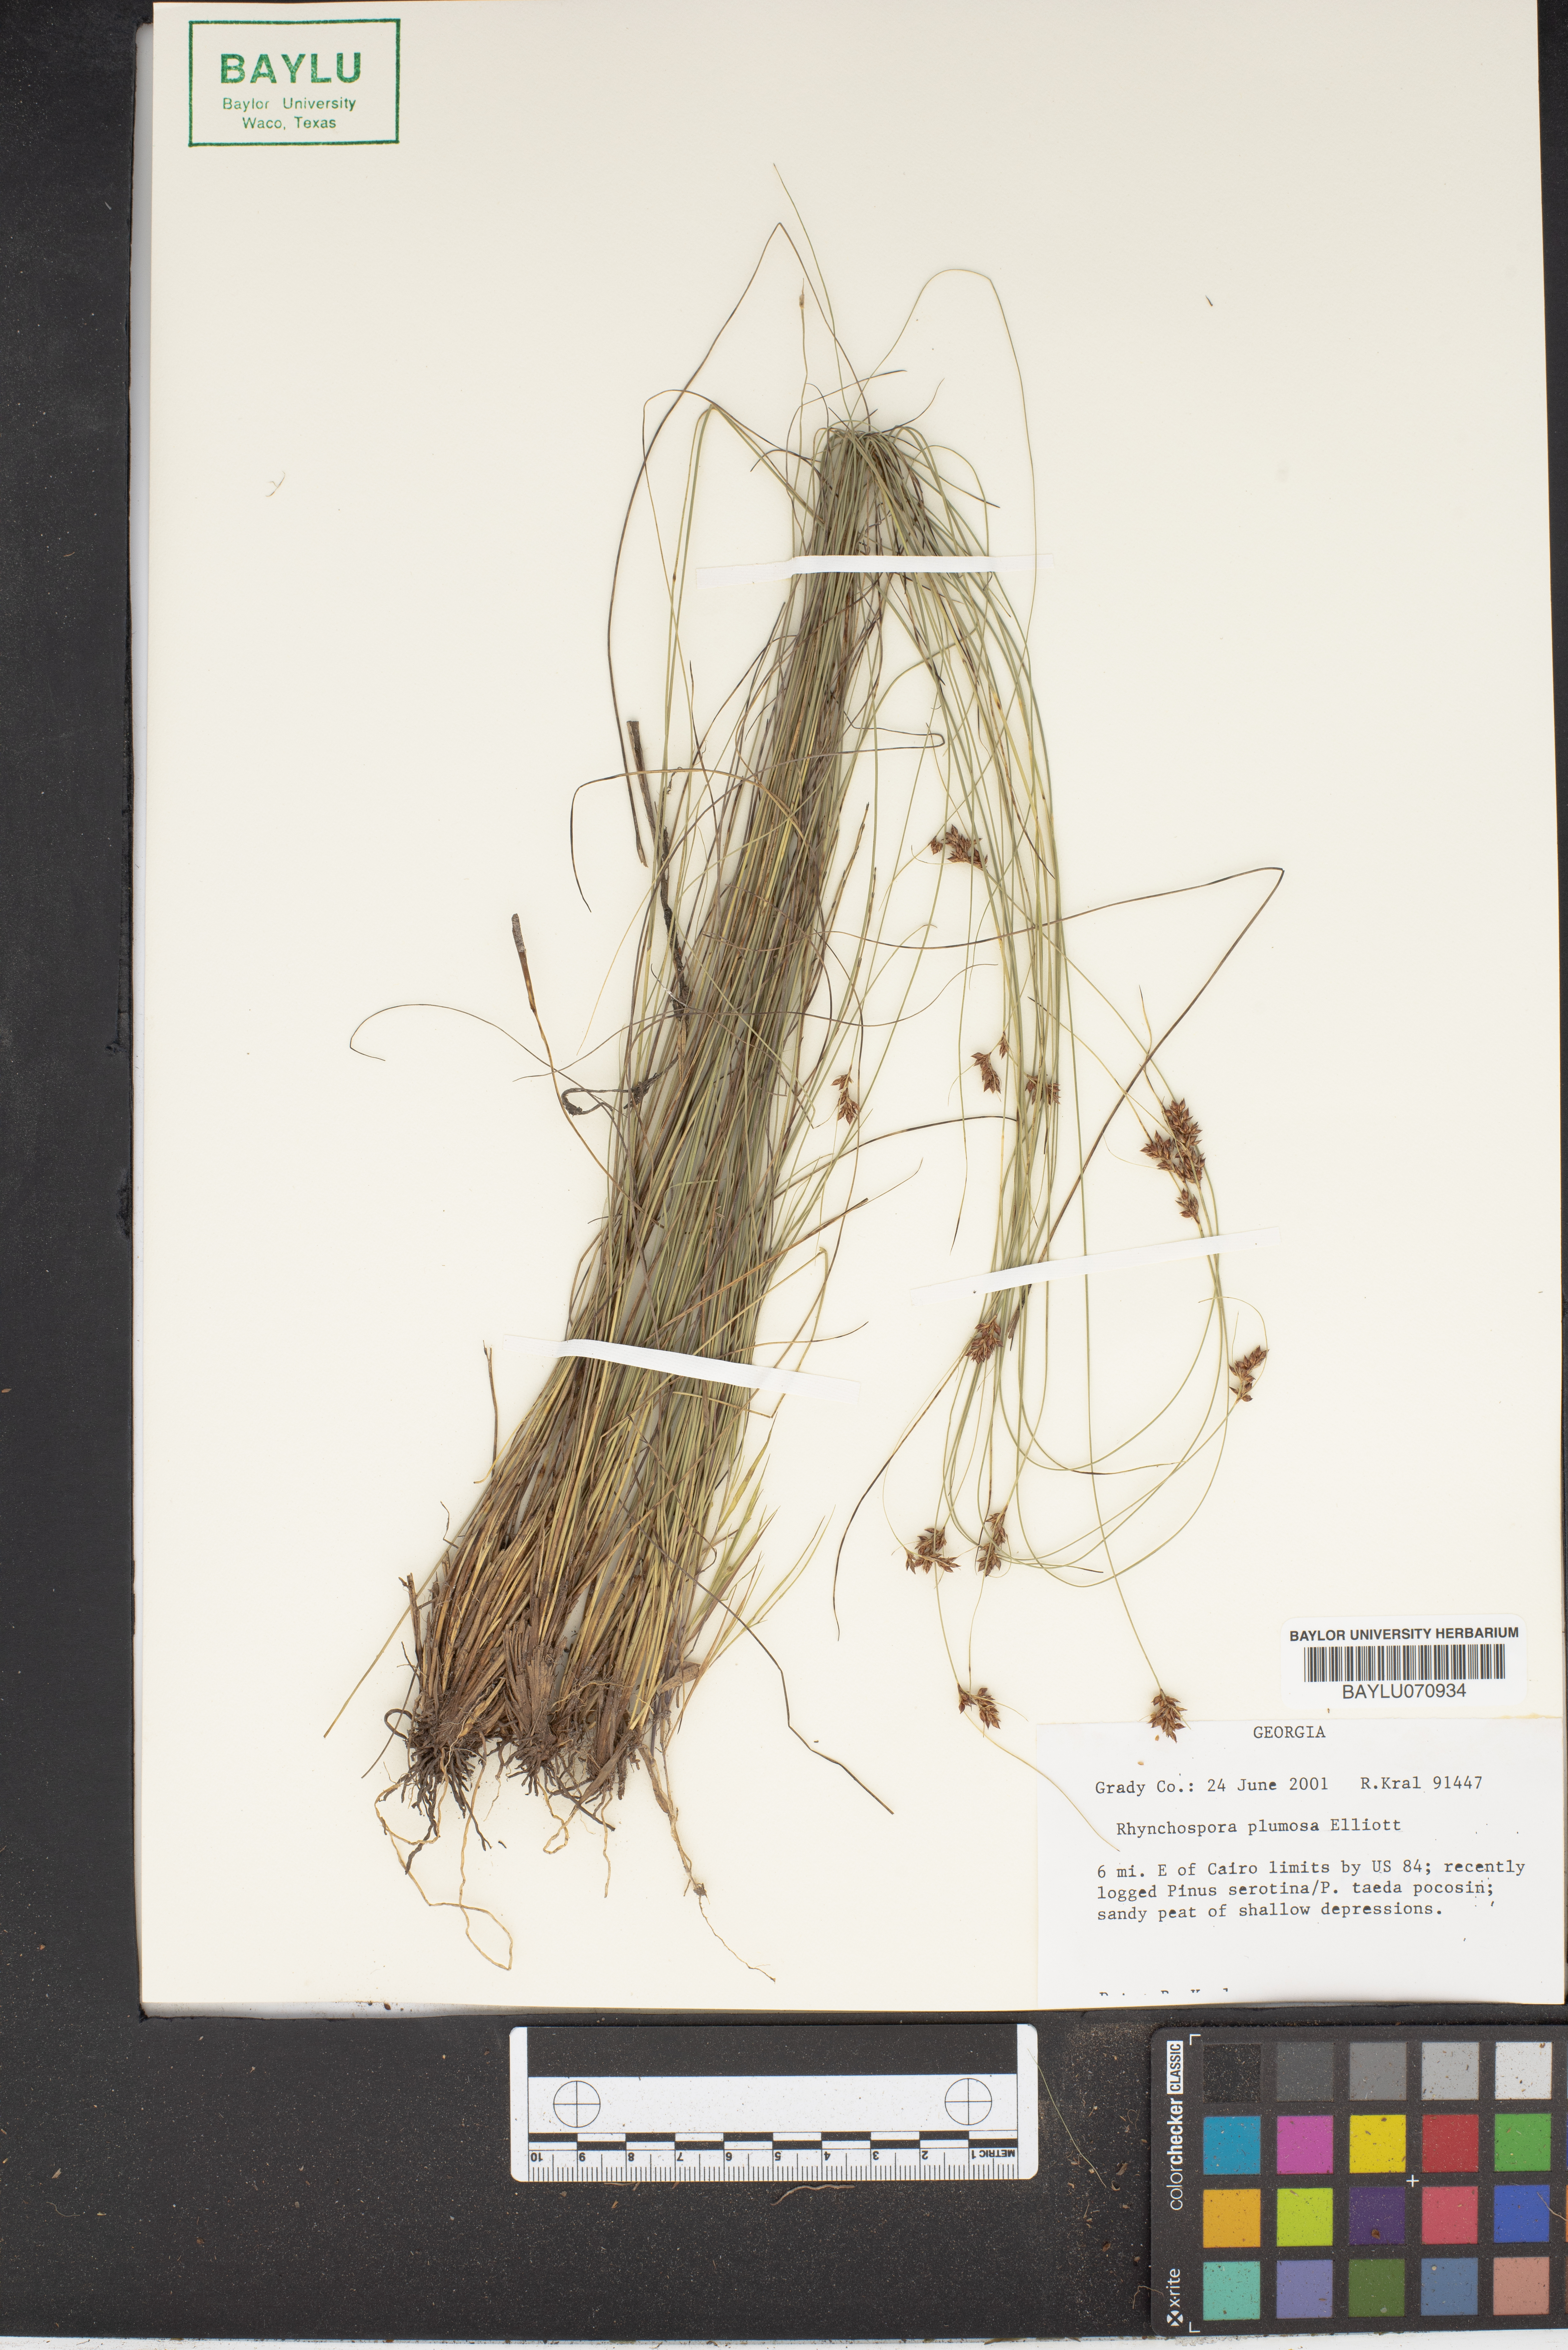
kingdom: Plantae
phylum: Tracheophyta
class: Liliopsida
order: Poales
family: Cyperaceae
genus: Rhynchospora
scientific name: Rhynchospora plumosa
